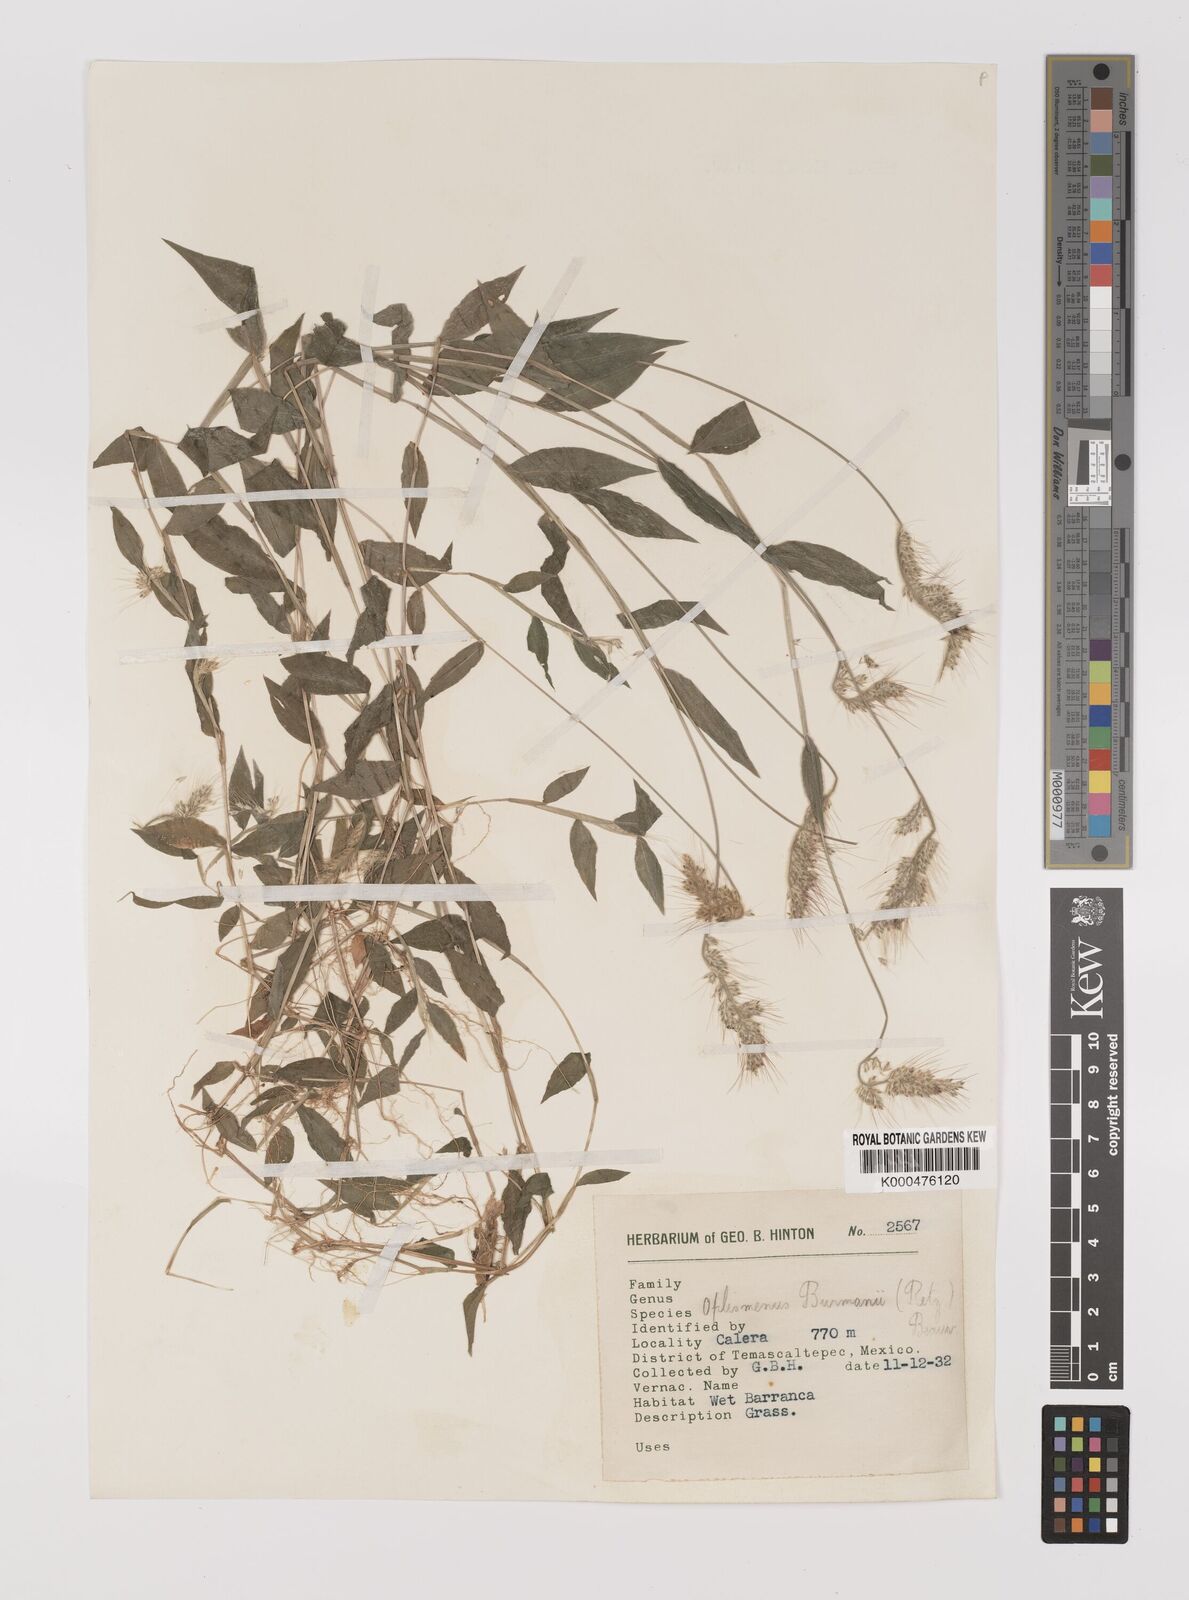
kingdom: Plantae
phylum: Tracheophyta
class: Liliopsida
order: Poales
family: Poaceae
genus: Oplismenus
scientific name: Oplismenus burmanni
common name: Burmann's basketgrass
